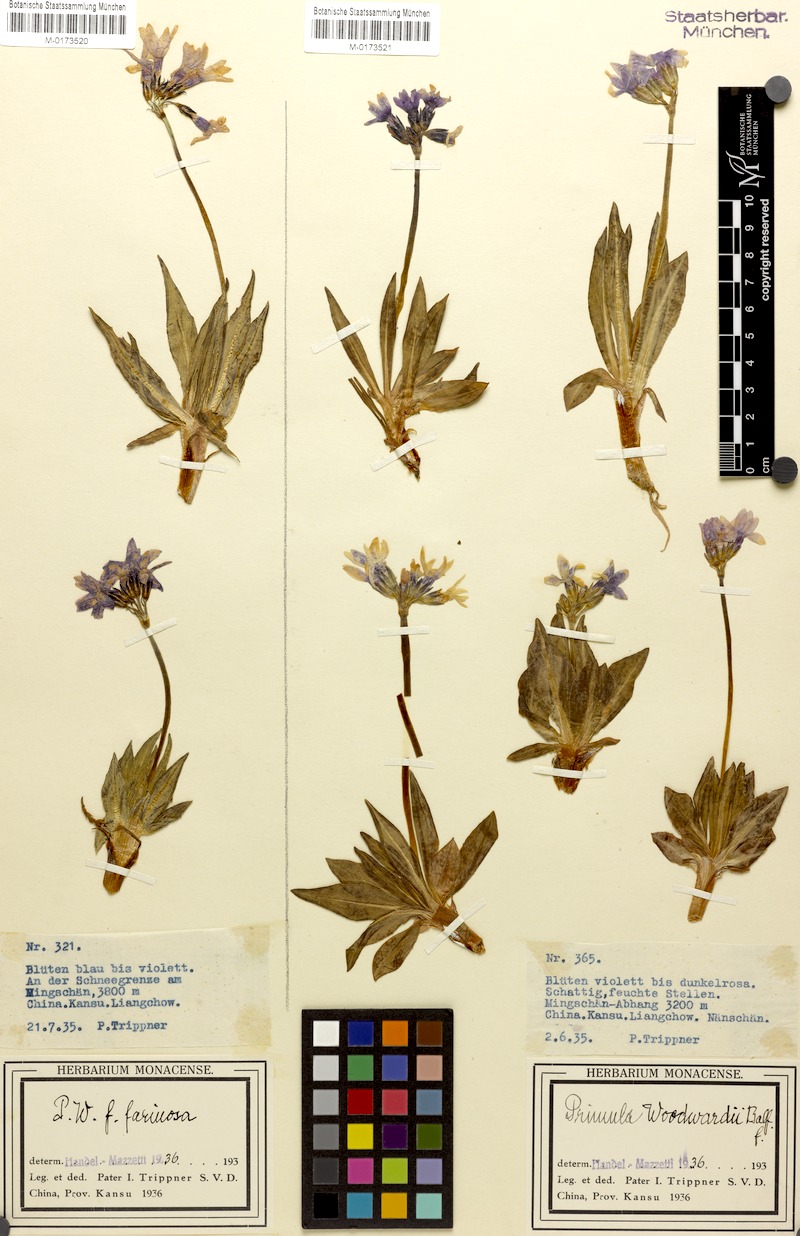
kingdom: Plantae
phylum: Tracheophyta
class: Magnoliopsida
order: Ericales
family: Primulaceae
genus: Primula
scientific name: Primula woodwardii
